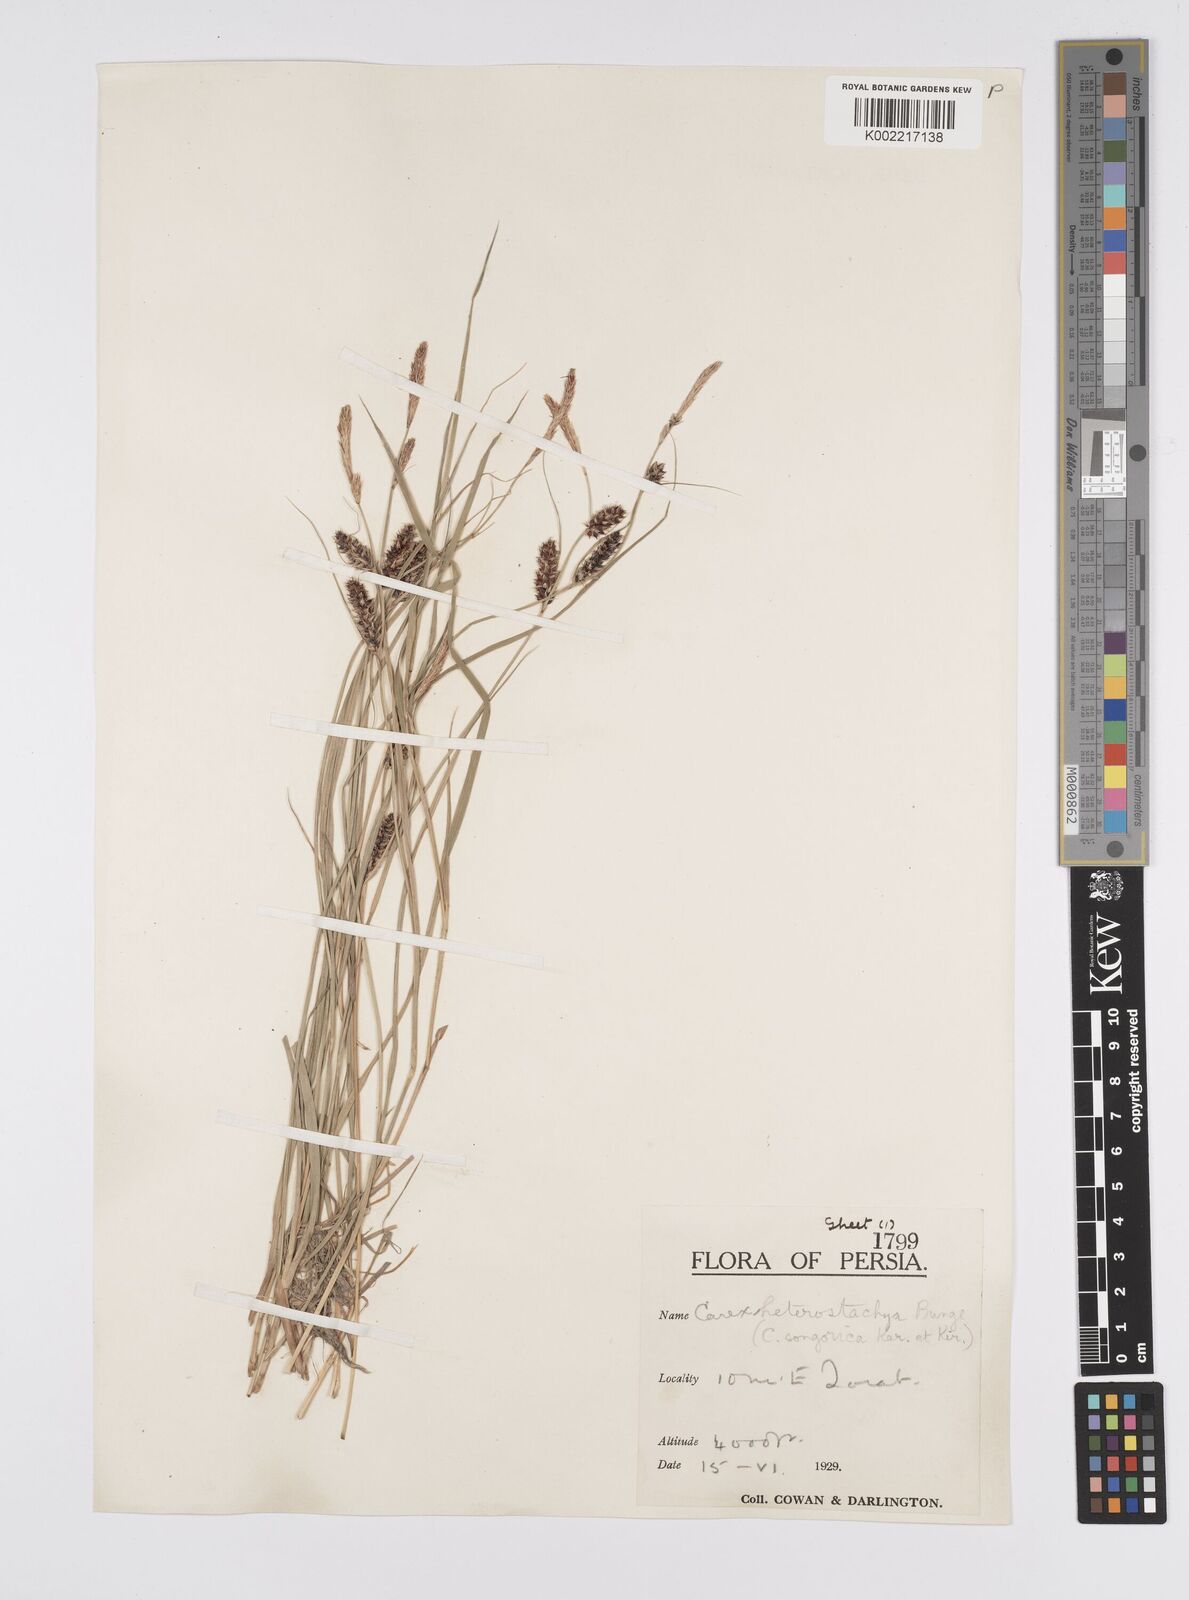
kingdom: Plantae
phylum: Tracheophyta
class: Liliopsida
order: Poales
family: Cyperaceae
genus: Carex
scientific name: Carex heterostachya
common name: Different-spike sedge
